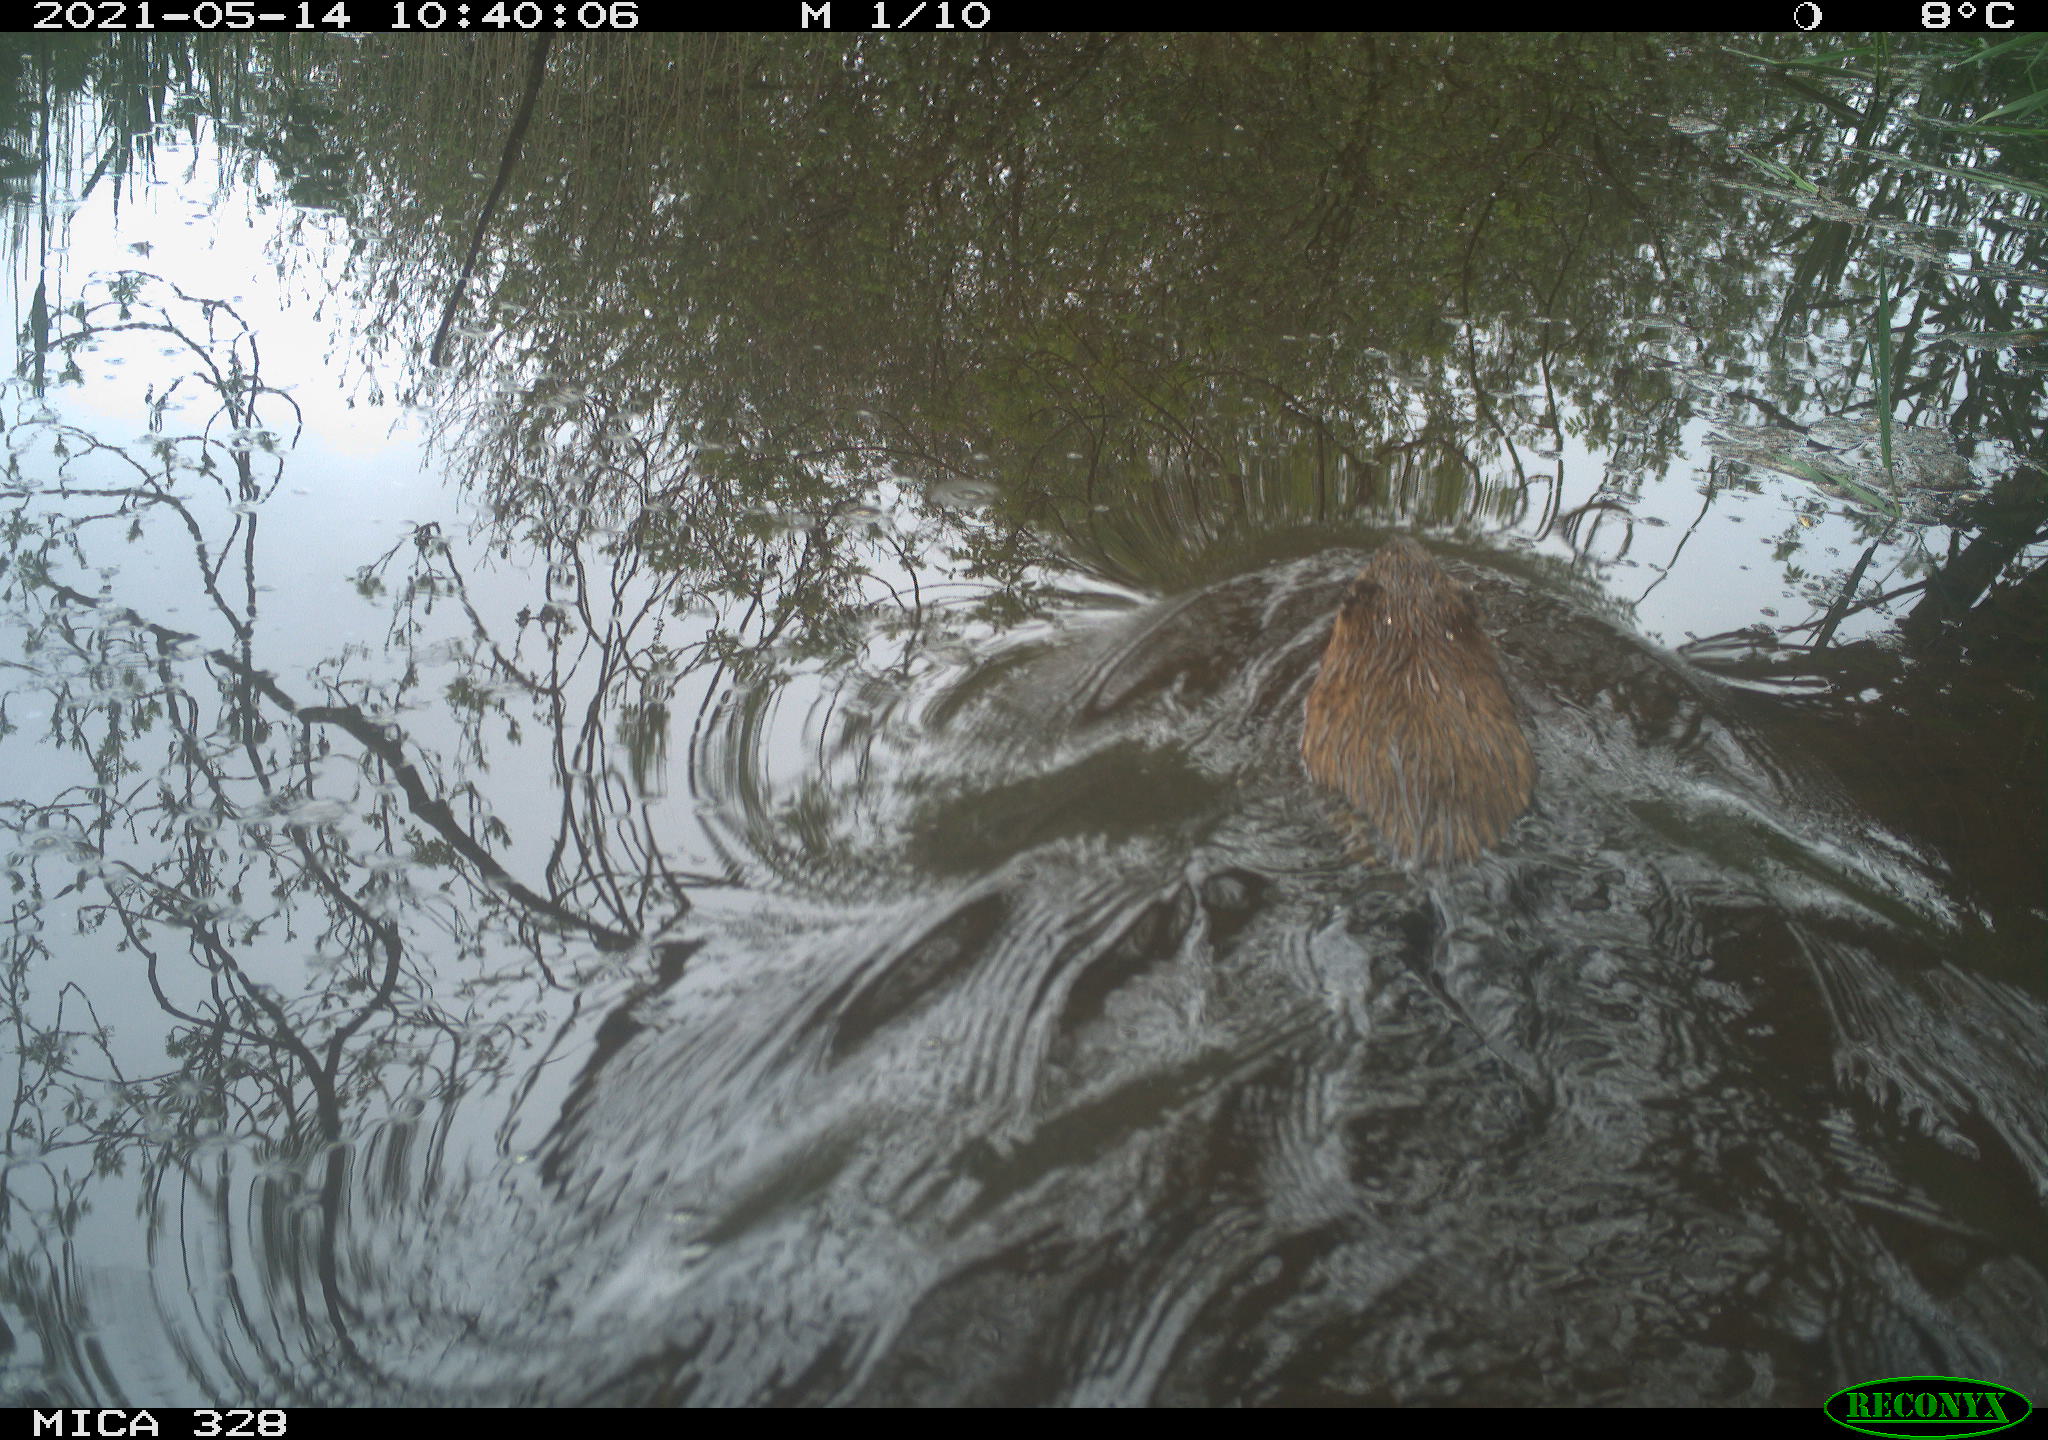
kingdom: Animalia
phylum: Chordata
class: Mammalia
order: Rodentia
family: Cricetidae
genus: Ondatra
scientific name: Ondatra zibethicus
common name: Muskrat
